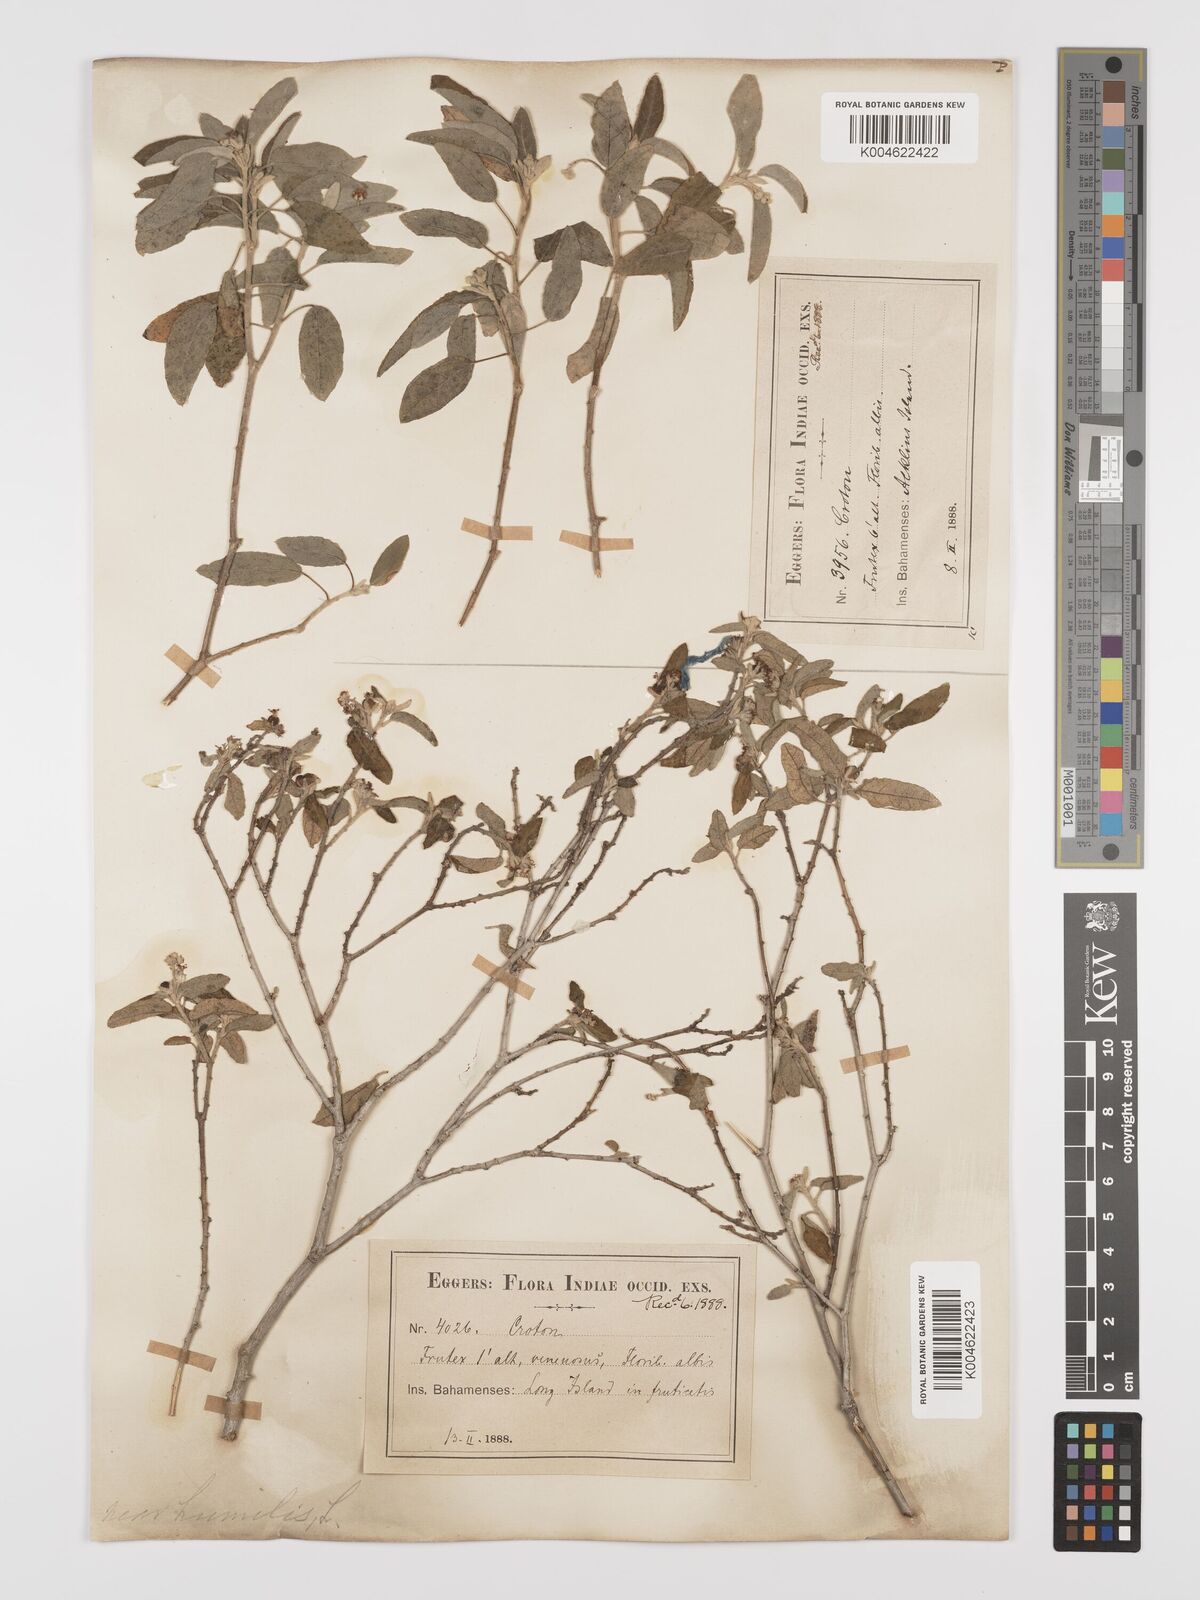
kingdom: Plantae
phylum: Tracheophyta
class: Magnoliopsida
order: Malpighiales
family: Euphorbiaceae
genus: Croton
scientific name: Croton
